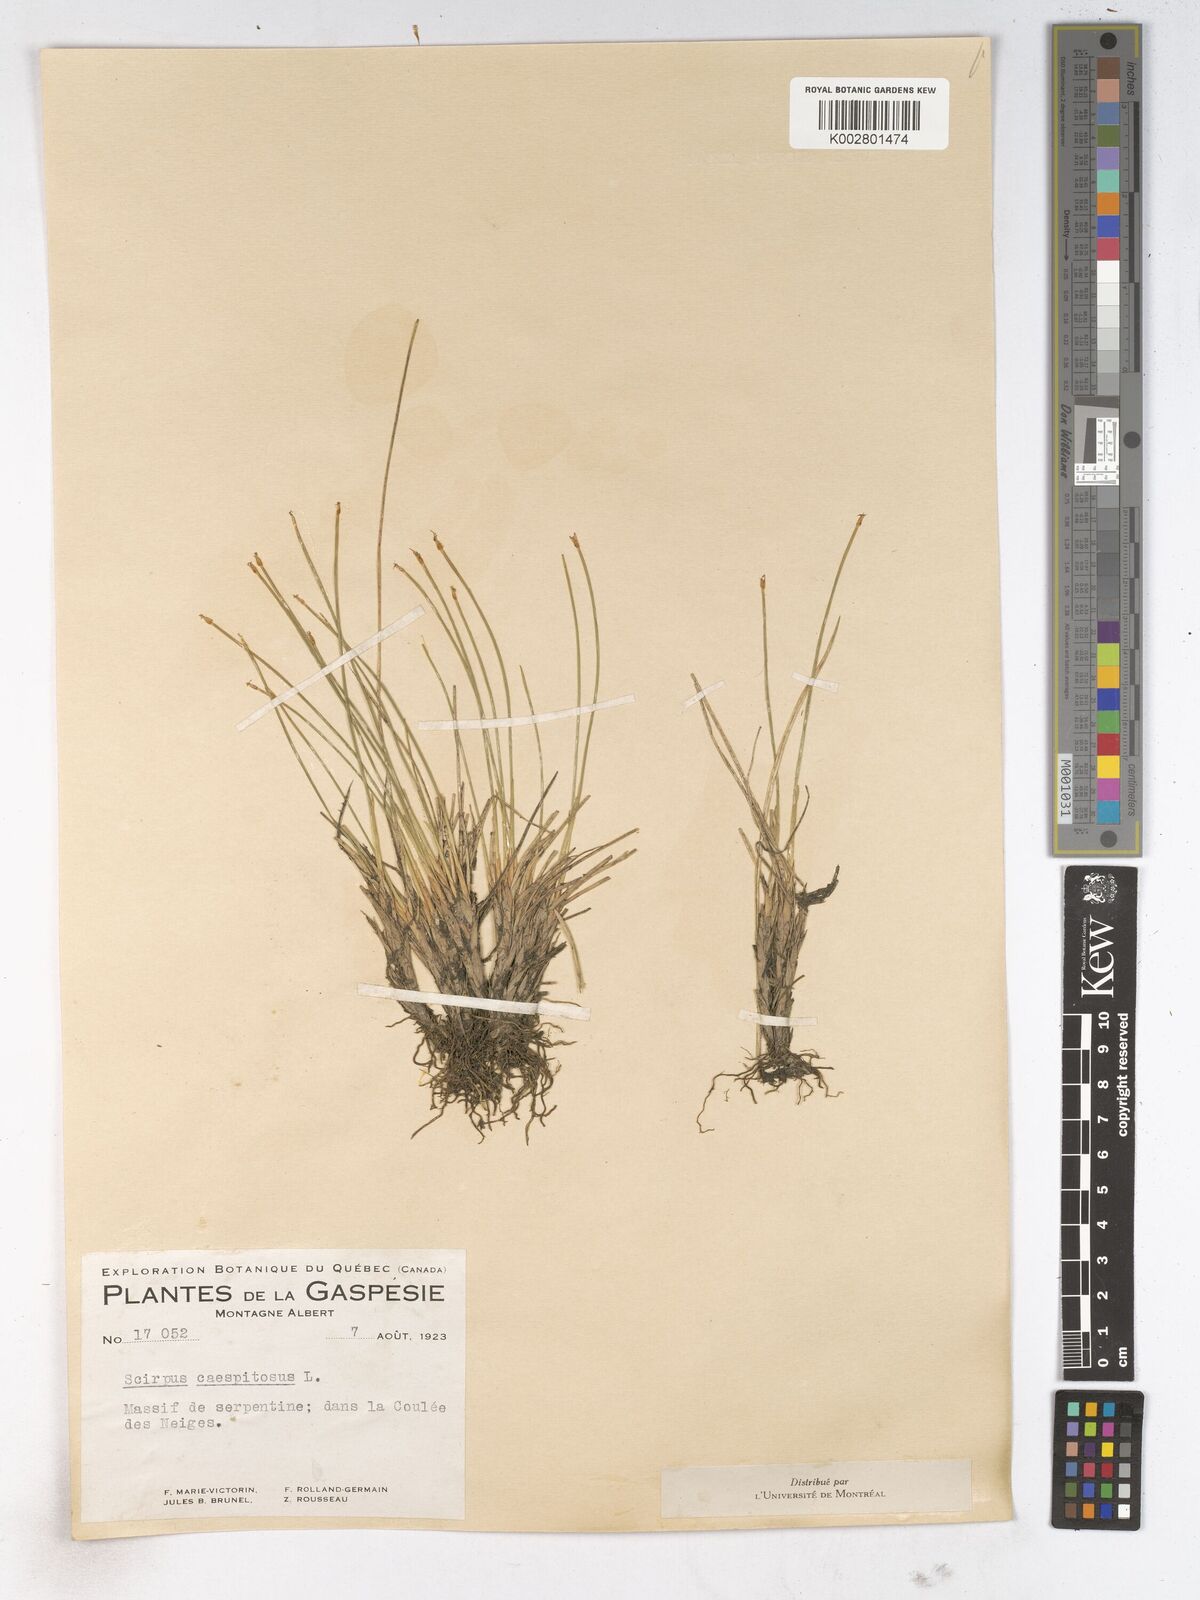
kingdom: Plantae
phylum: Tracheophyta
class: Liliopsida
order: Poales
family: Cyperaceae
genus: Trichophorum
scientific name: Trichophorum cespitosum
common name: Cespitose bulrush
